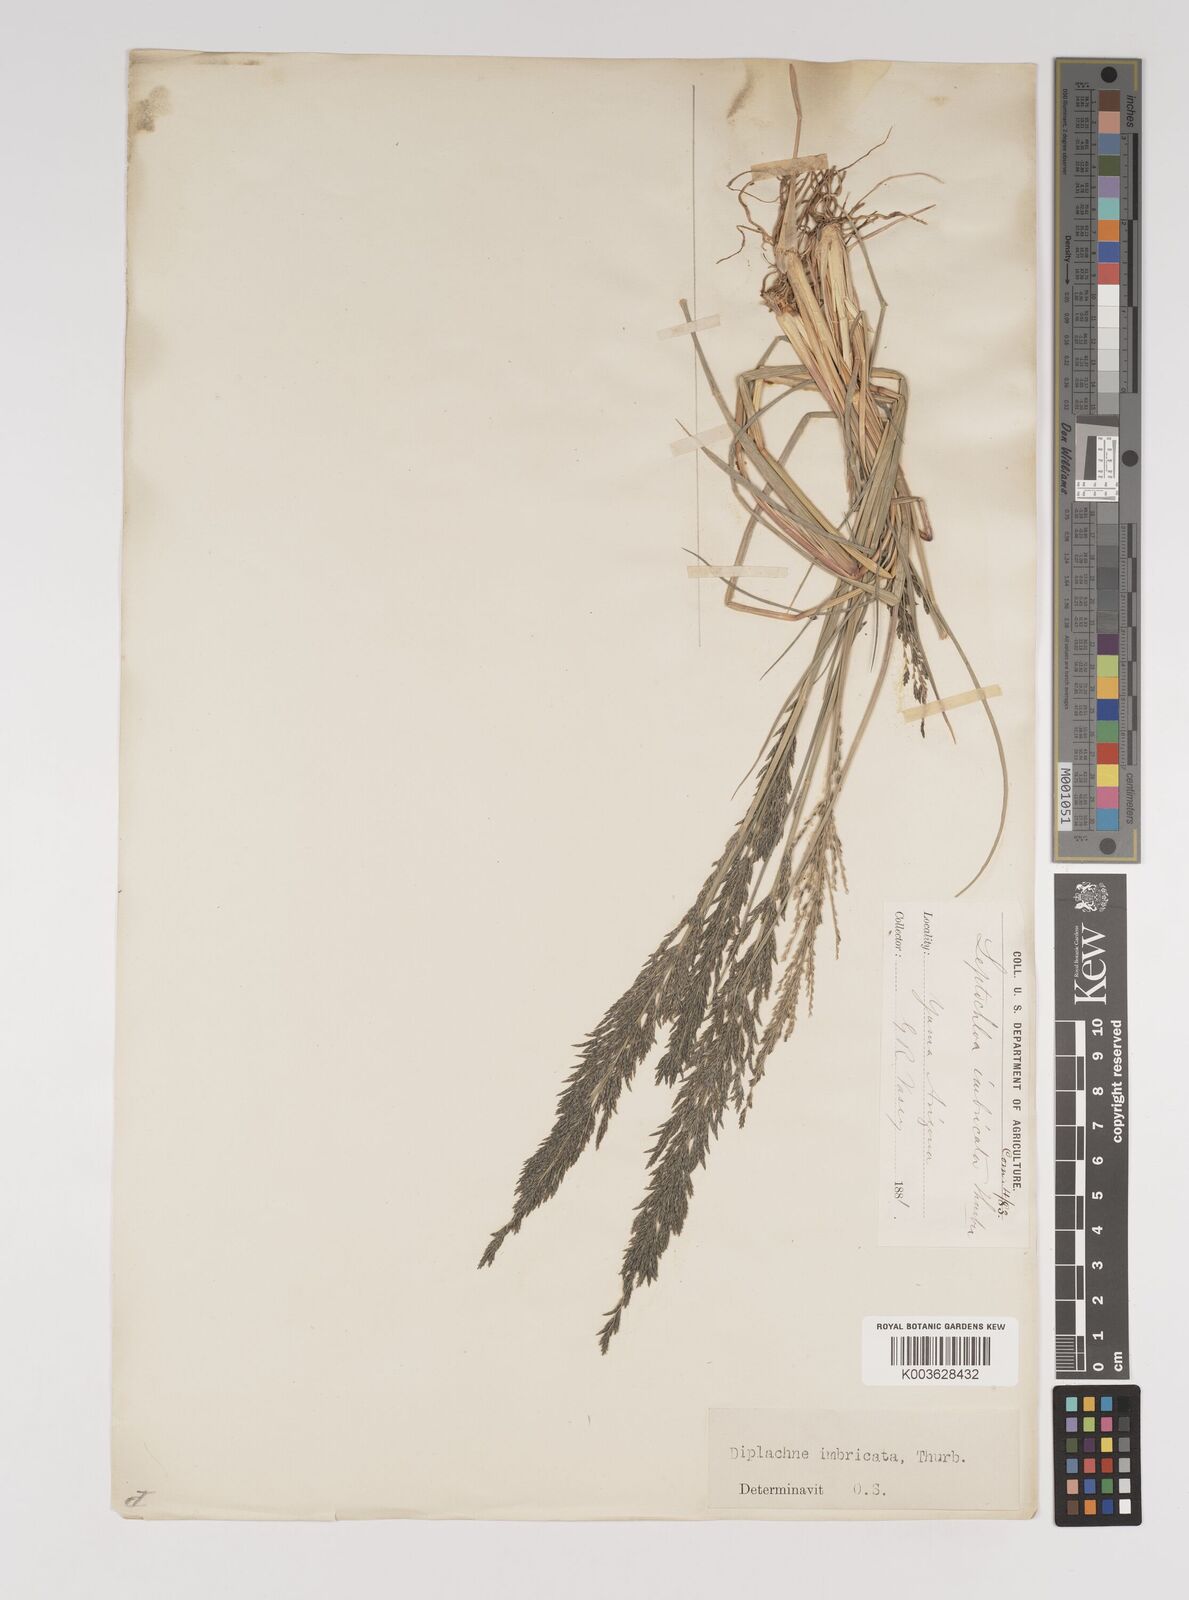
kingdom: Plantae
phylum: Tracheophyta
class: Liliopsida
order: Poales
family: Poaceae
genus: Diplachne
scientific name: Diplachne fusca
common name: Brown beetle grass
